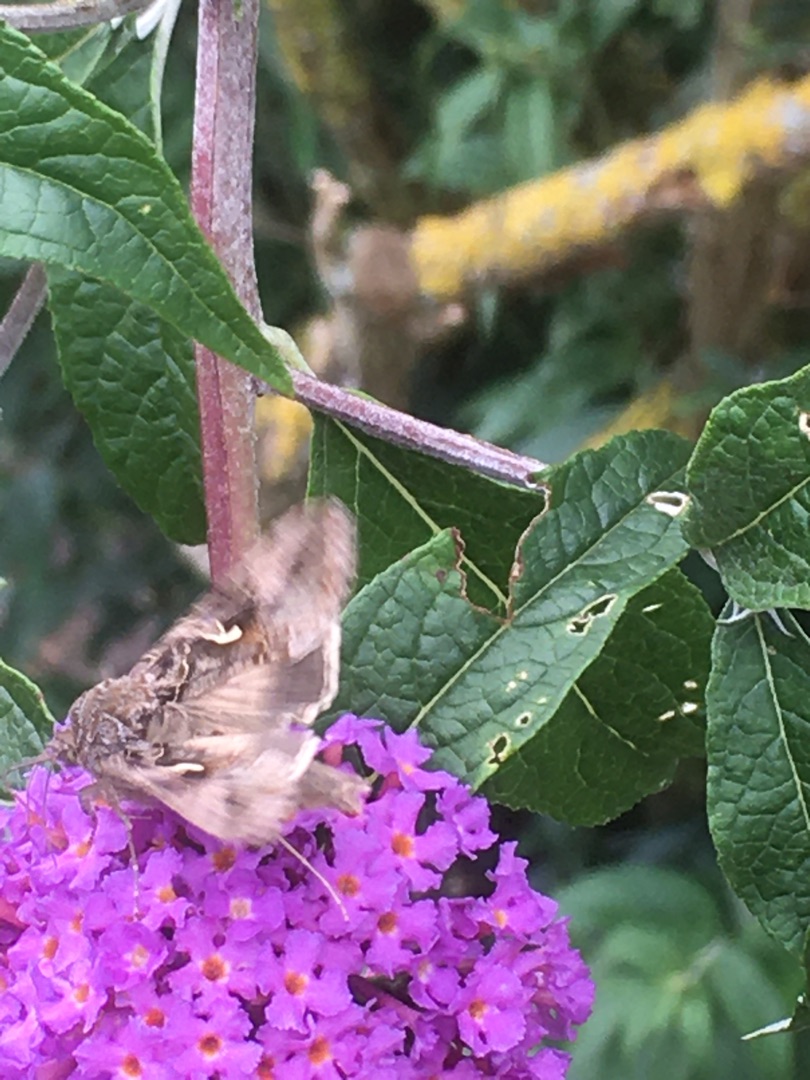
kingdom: Animalia
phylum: Arthropoda
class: Insecta
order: Lepidoptera
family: Noctuidae
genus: Autographa
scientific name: Autographa gamma
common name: Gammaugle
